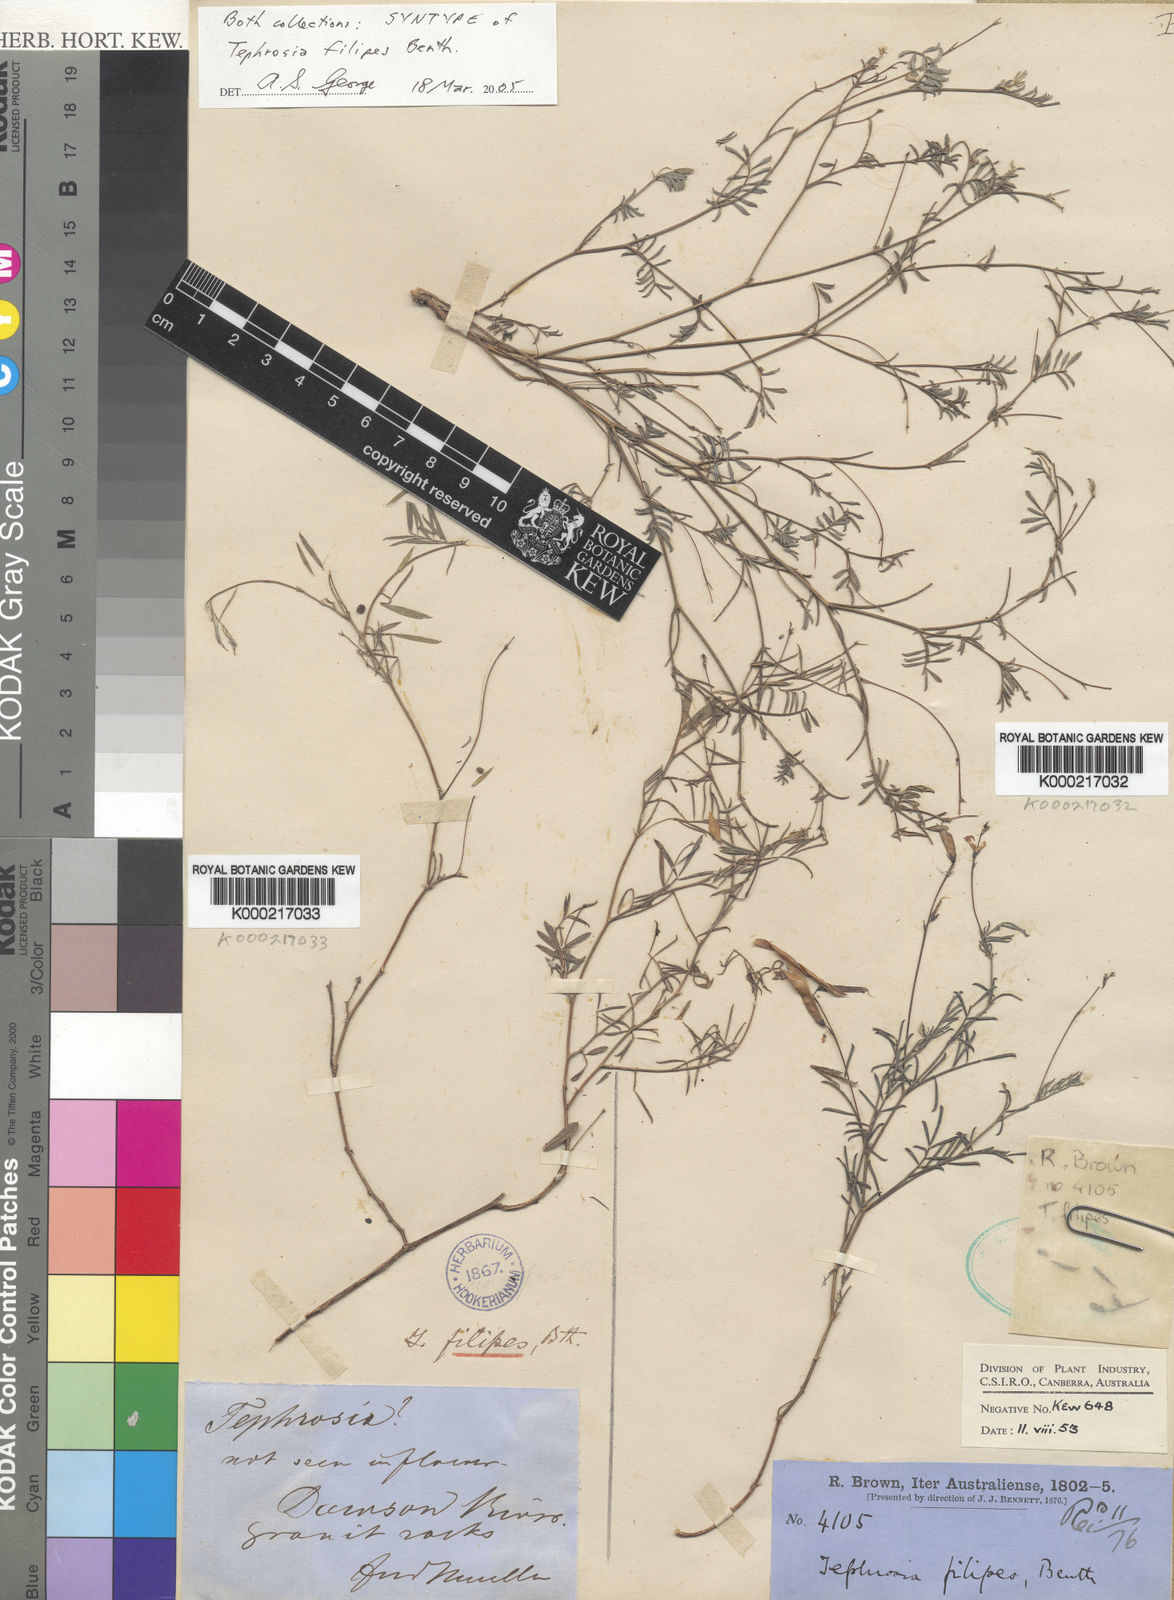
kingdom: Plantae
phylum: Tracheophyta
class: Magnoliopsida
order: Fabales
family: Fabaceae
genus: Tephrosia
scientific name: Tephrosia filipes
